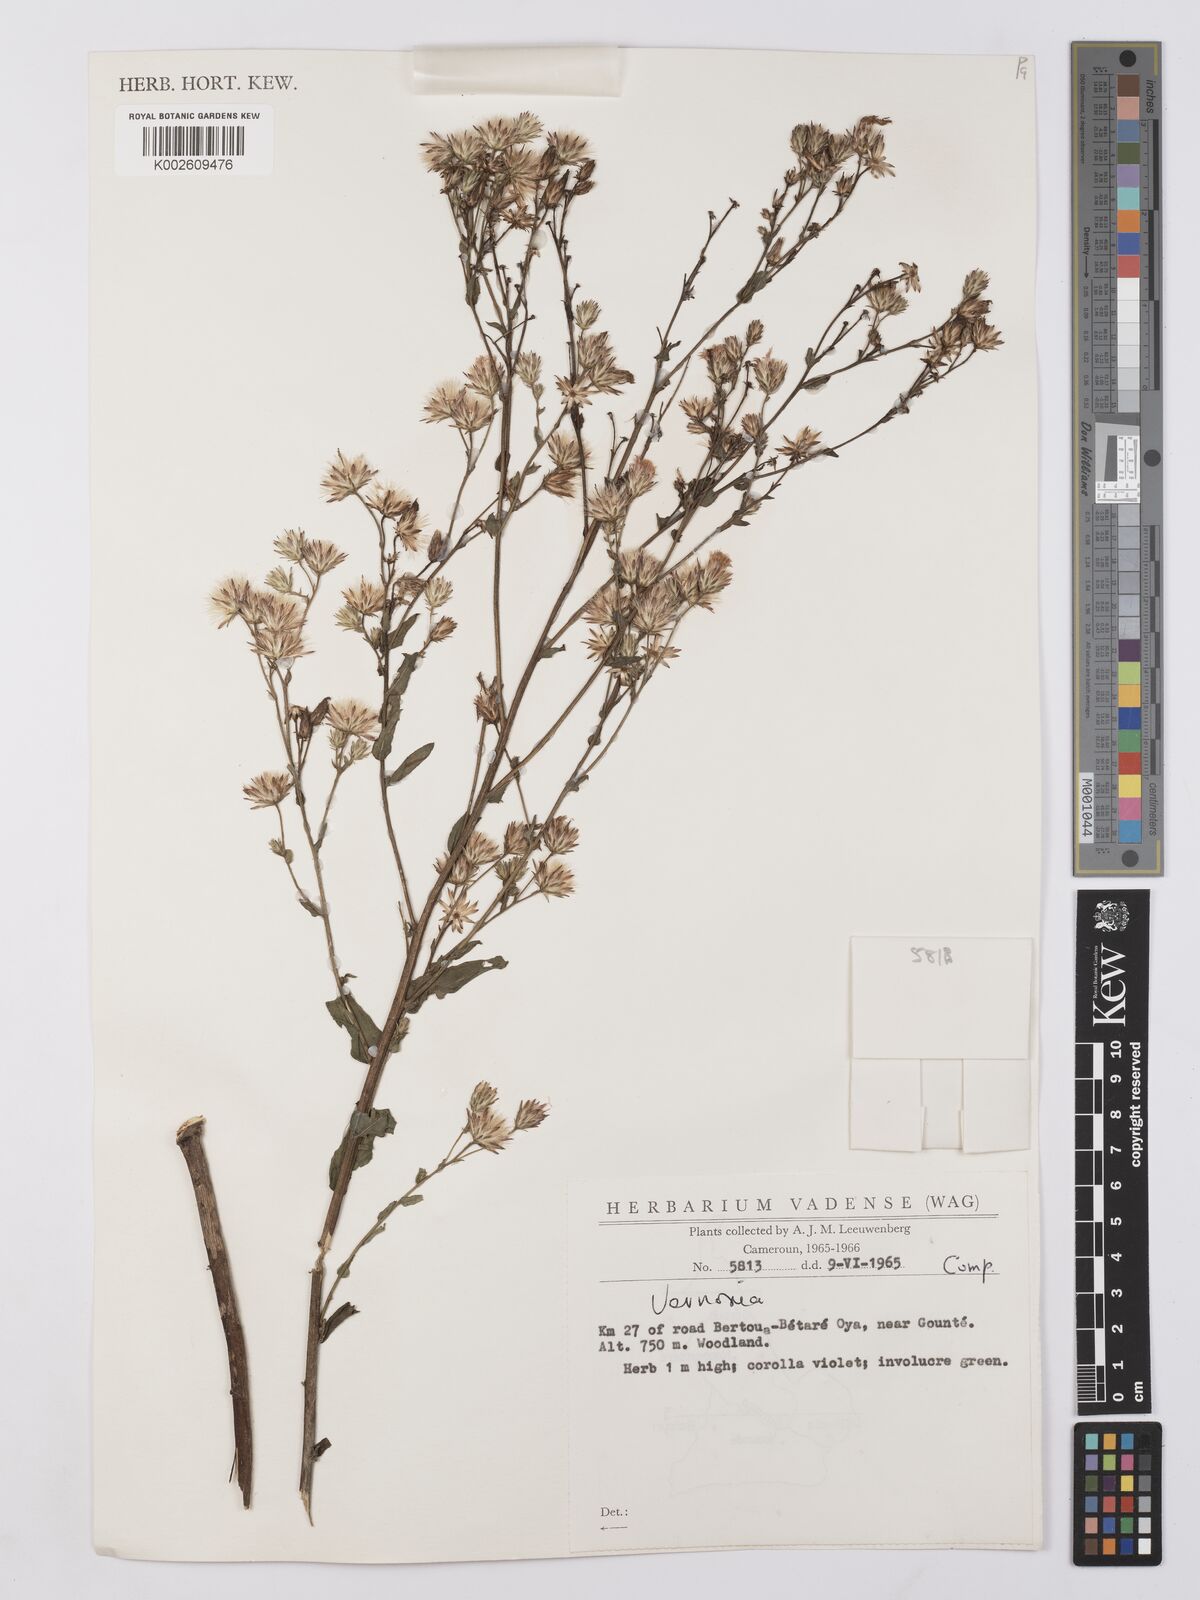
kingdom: Plantae
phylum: Tracheophyta
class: Magnoliopsida
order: Asterales
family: Asteraceae
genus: Vernonia
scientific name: Vernonia
